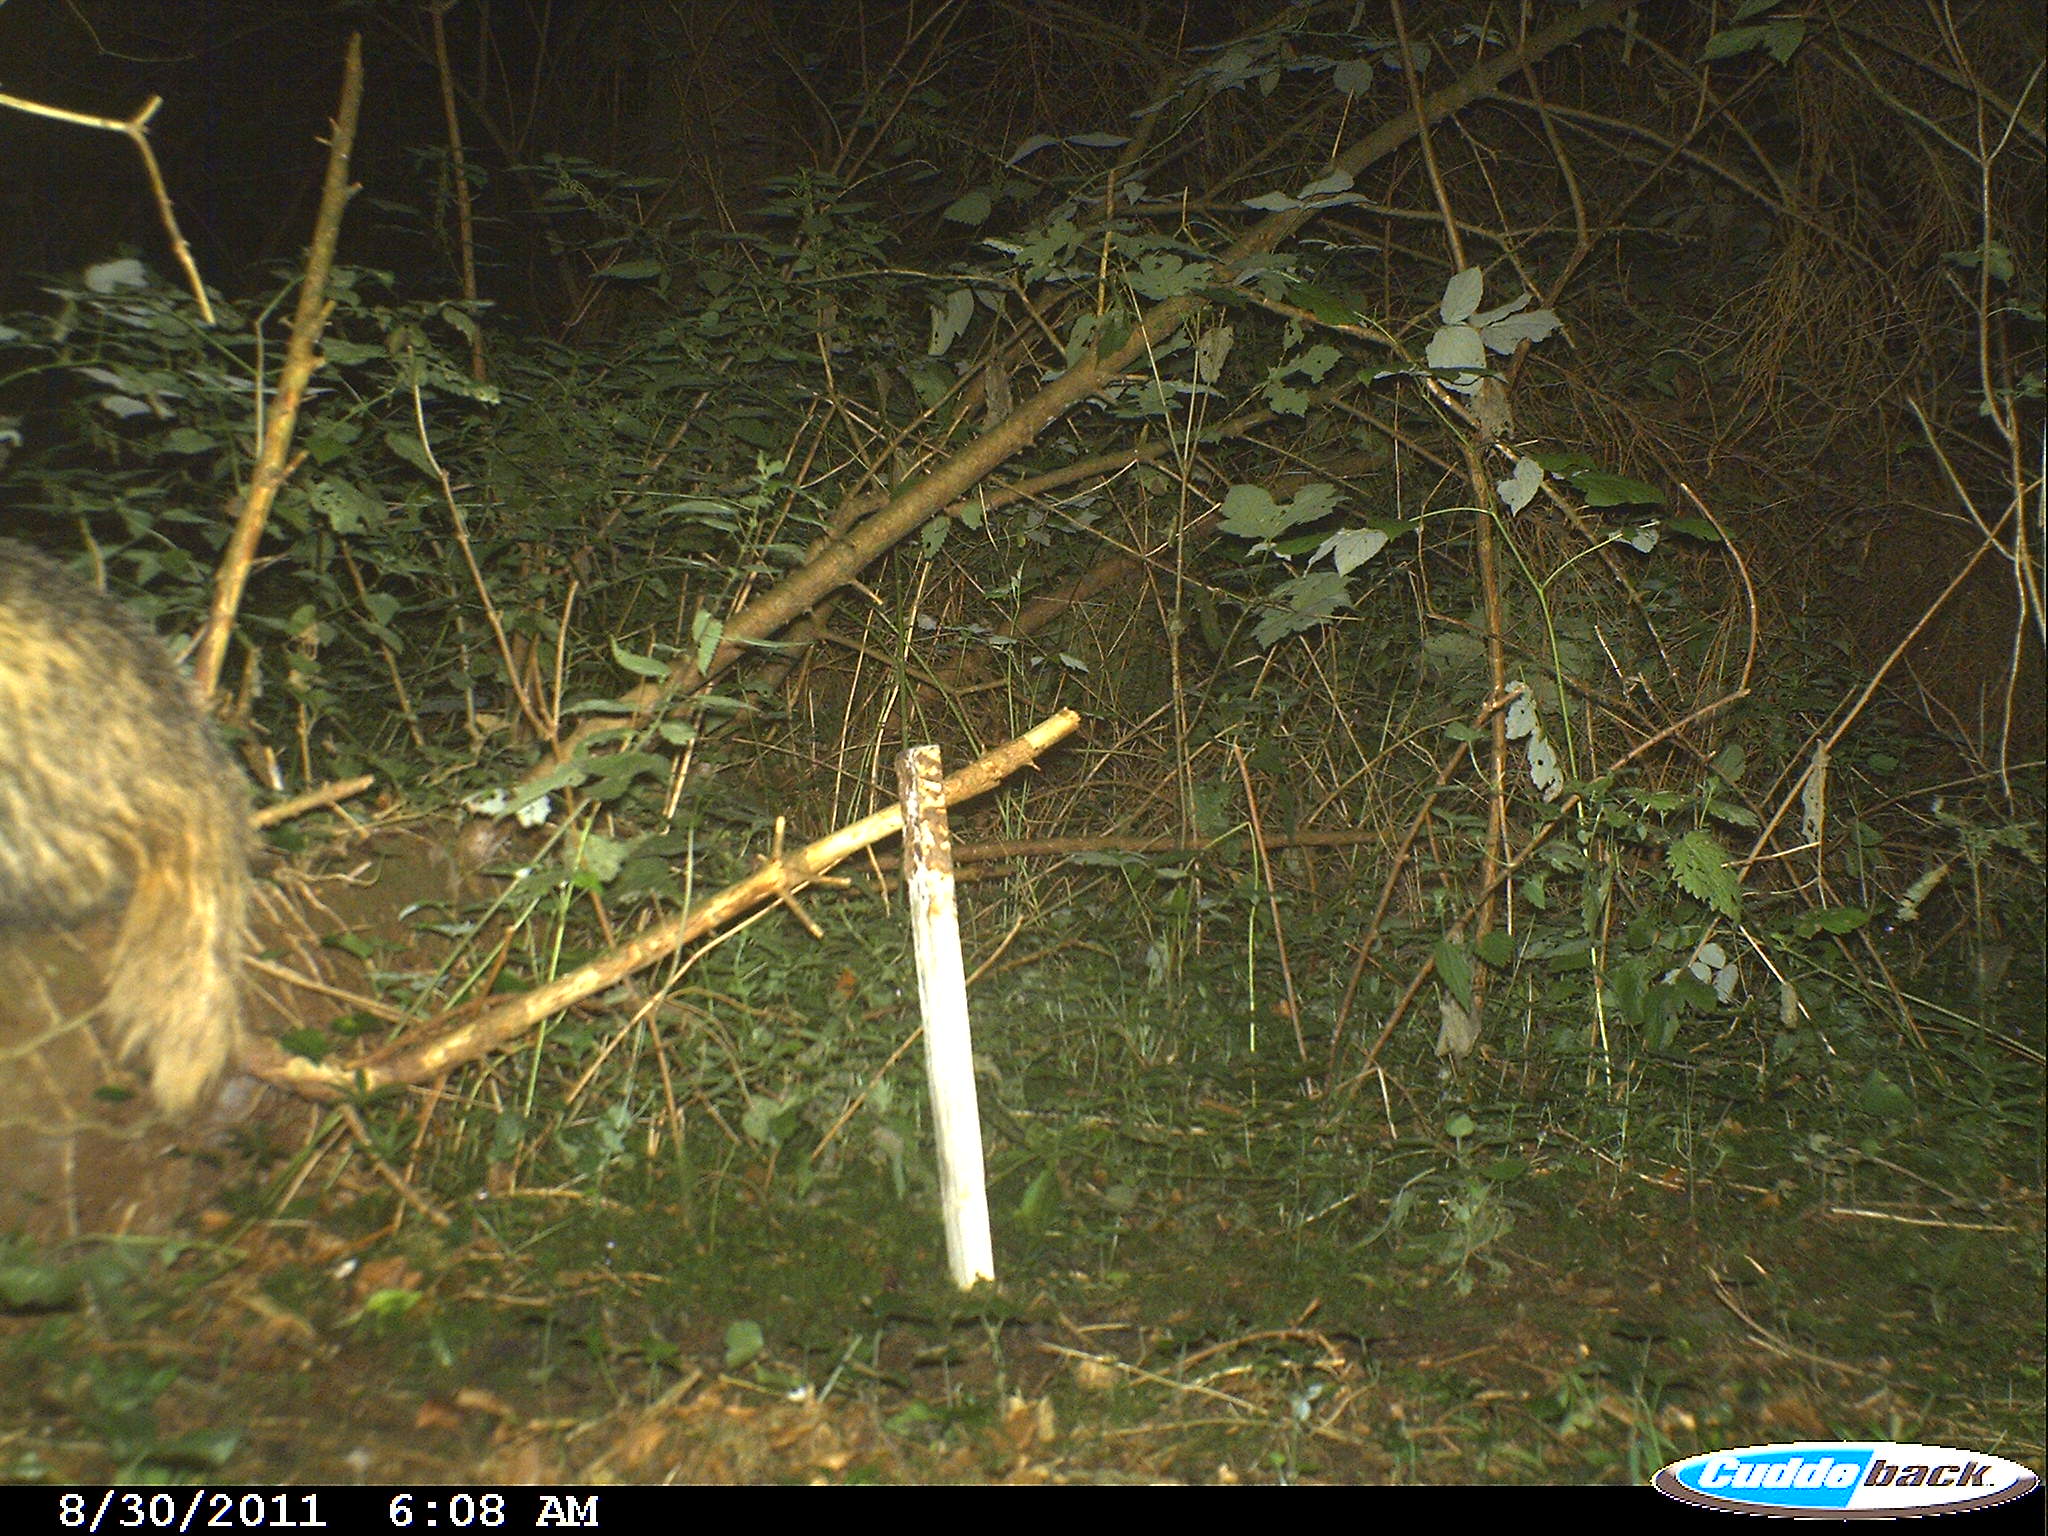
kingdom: Animalia
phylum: Chordata
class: Mammalia
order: Carnivora
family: Mustelidae
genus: Meles
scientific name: Meles meles
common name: Eurasian badger
